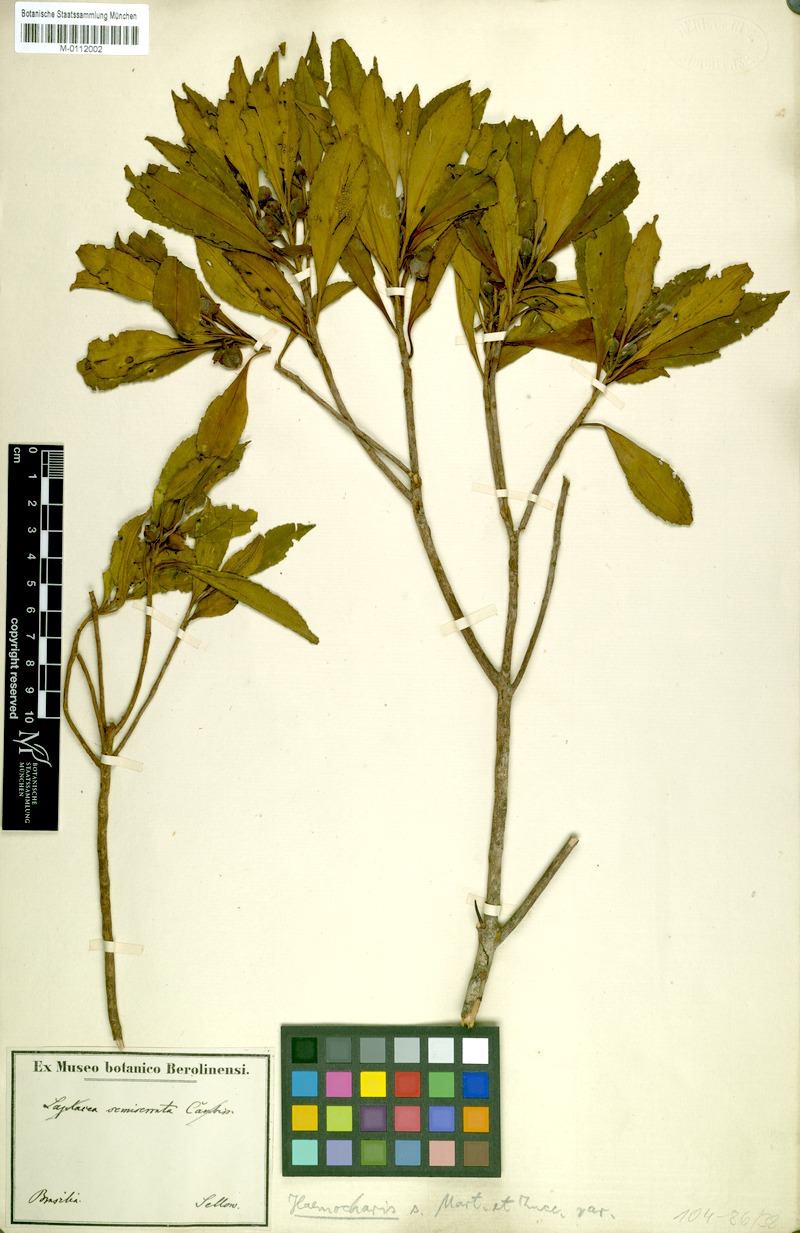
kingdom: Plantae
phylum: Tracheophyta
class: Magnoliopsida
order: Ericales
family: Theaceae
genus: Gordonia
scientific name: Gordonia fruticosa
